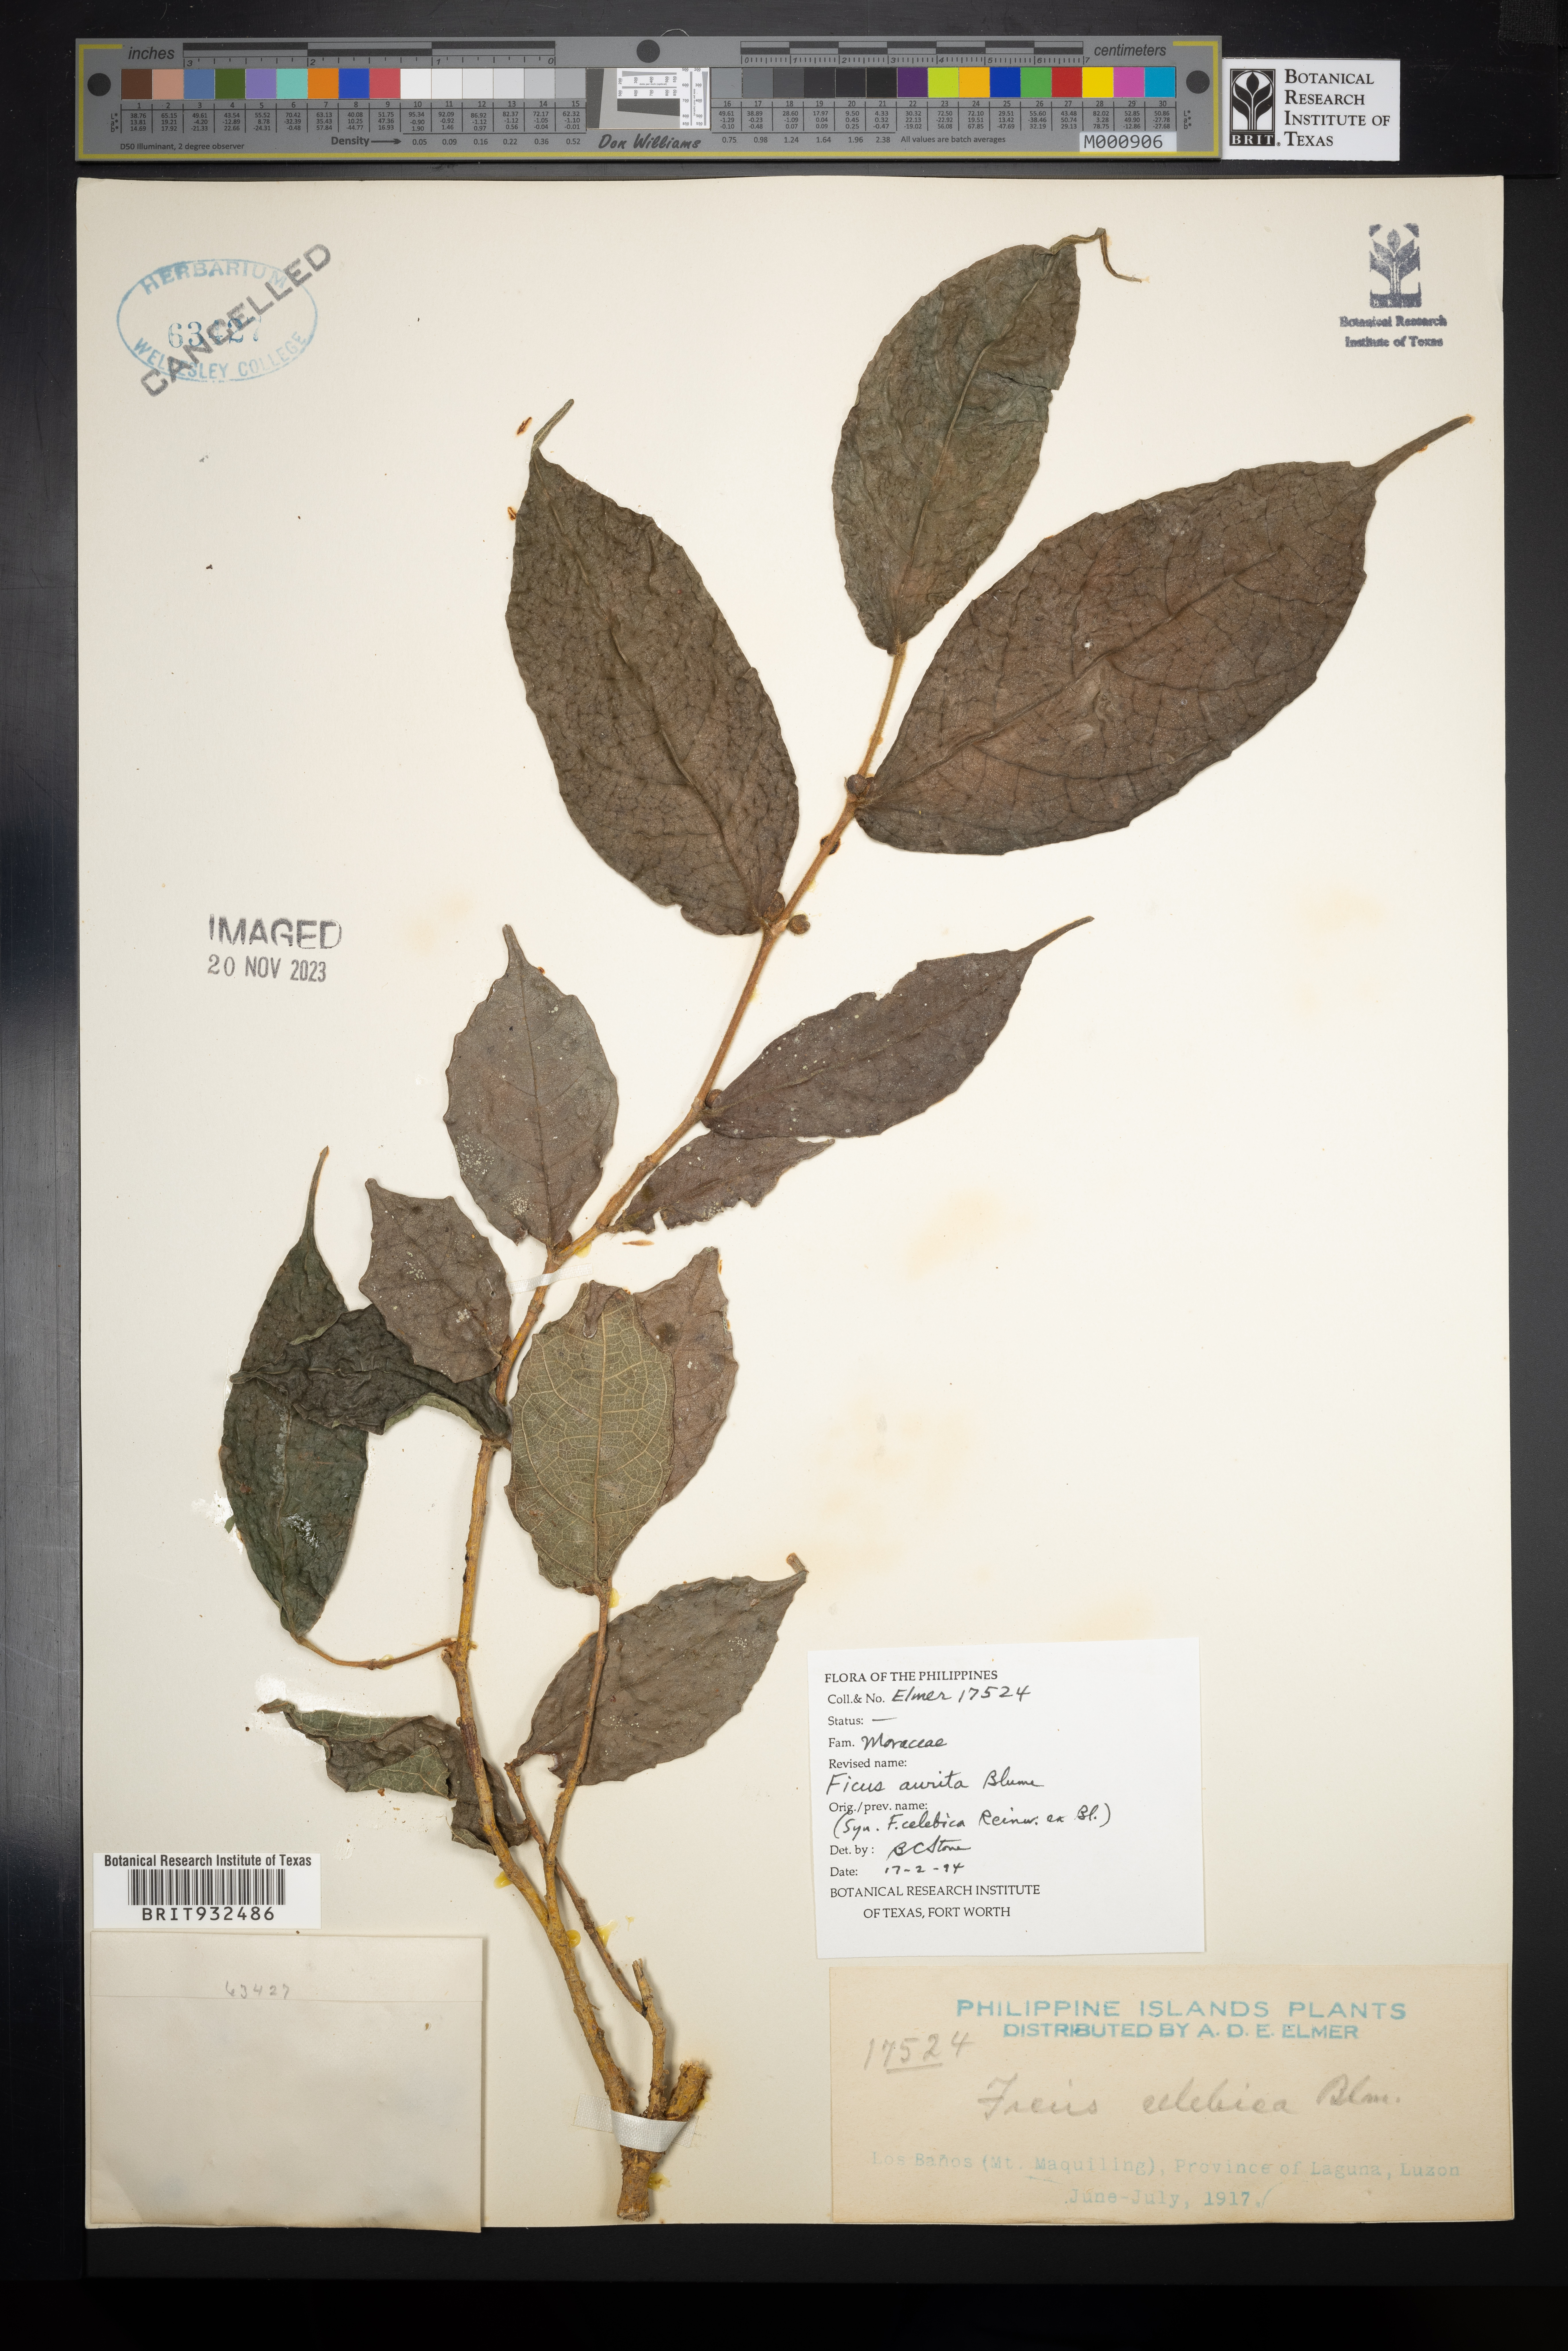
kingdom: Plantae
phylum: Tracheophyta
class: Magnoliopsida
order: Rosales
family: Moraceae
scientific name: Moraceae
